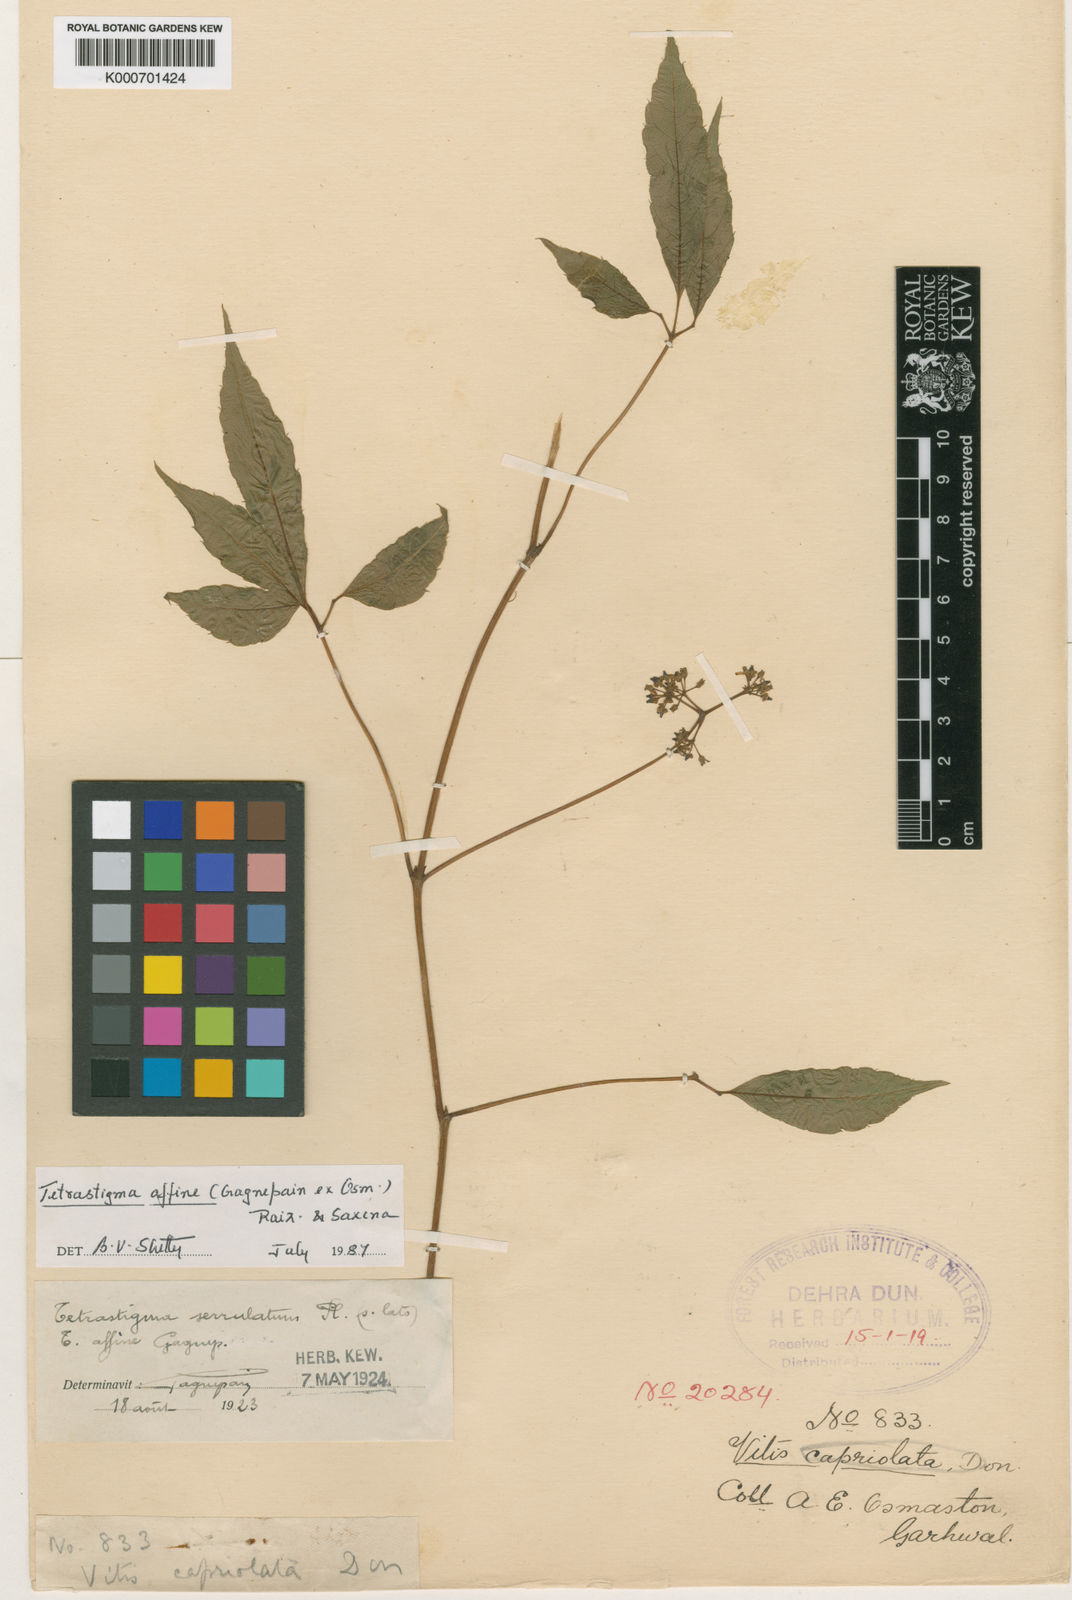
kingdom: Plantae
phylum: Tracheophyta
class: Magnoliopsida
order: Vitales
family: Vitaceae
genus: Tetrastigma
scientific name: Tetrastigma affine
